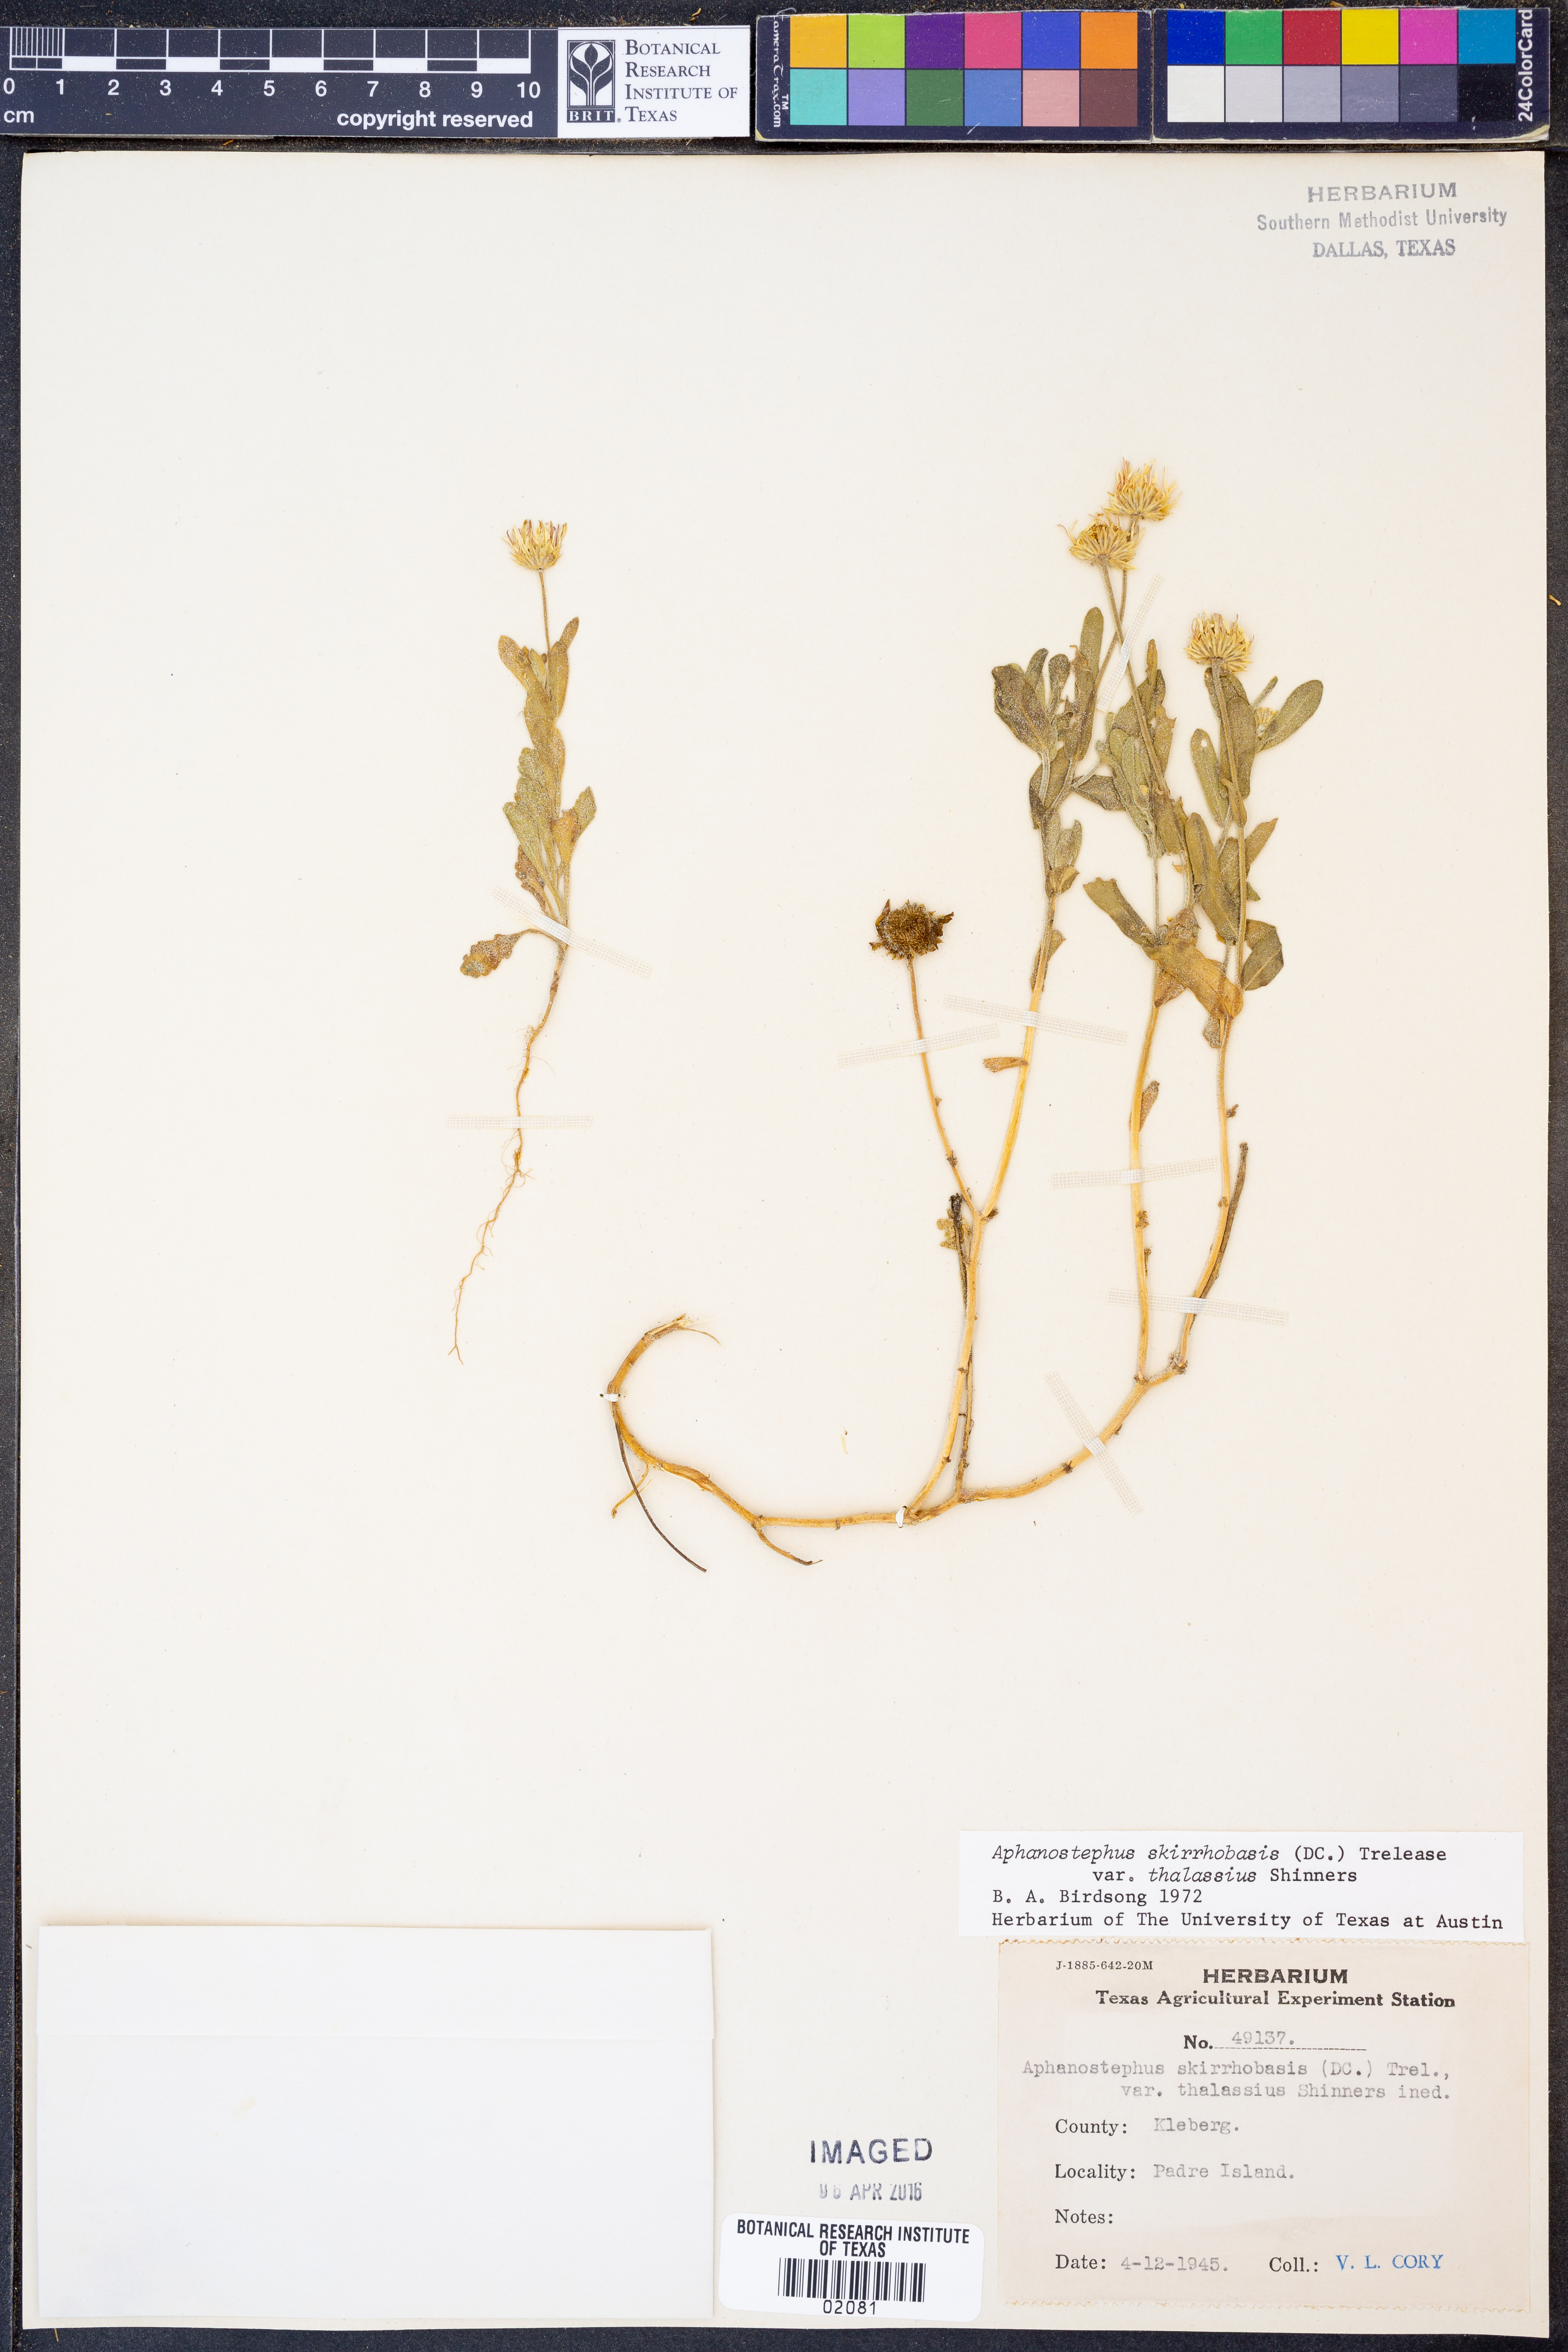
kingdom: Plantae
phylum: Tracheophyta
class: Magnoliopsida
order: Asterales
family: Asteraceae
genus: Aphanostephus
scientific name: Aphanostephus skirrhobasis
